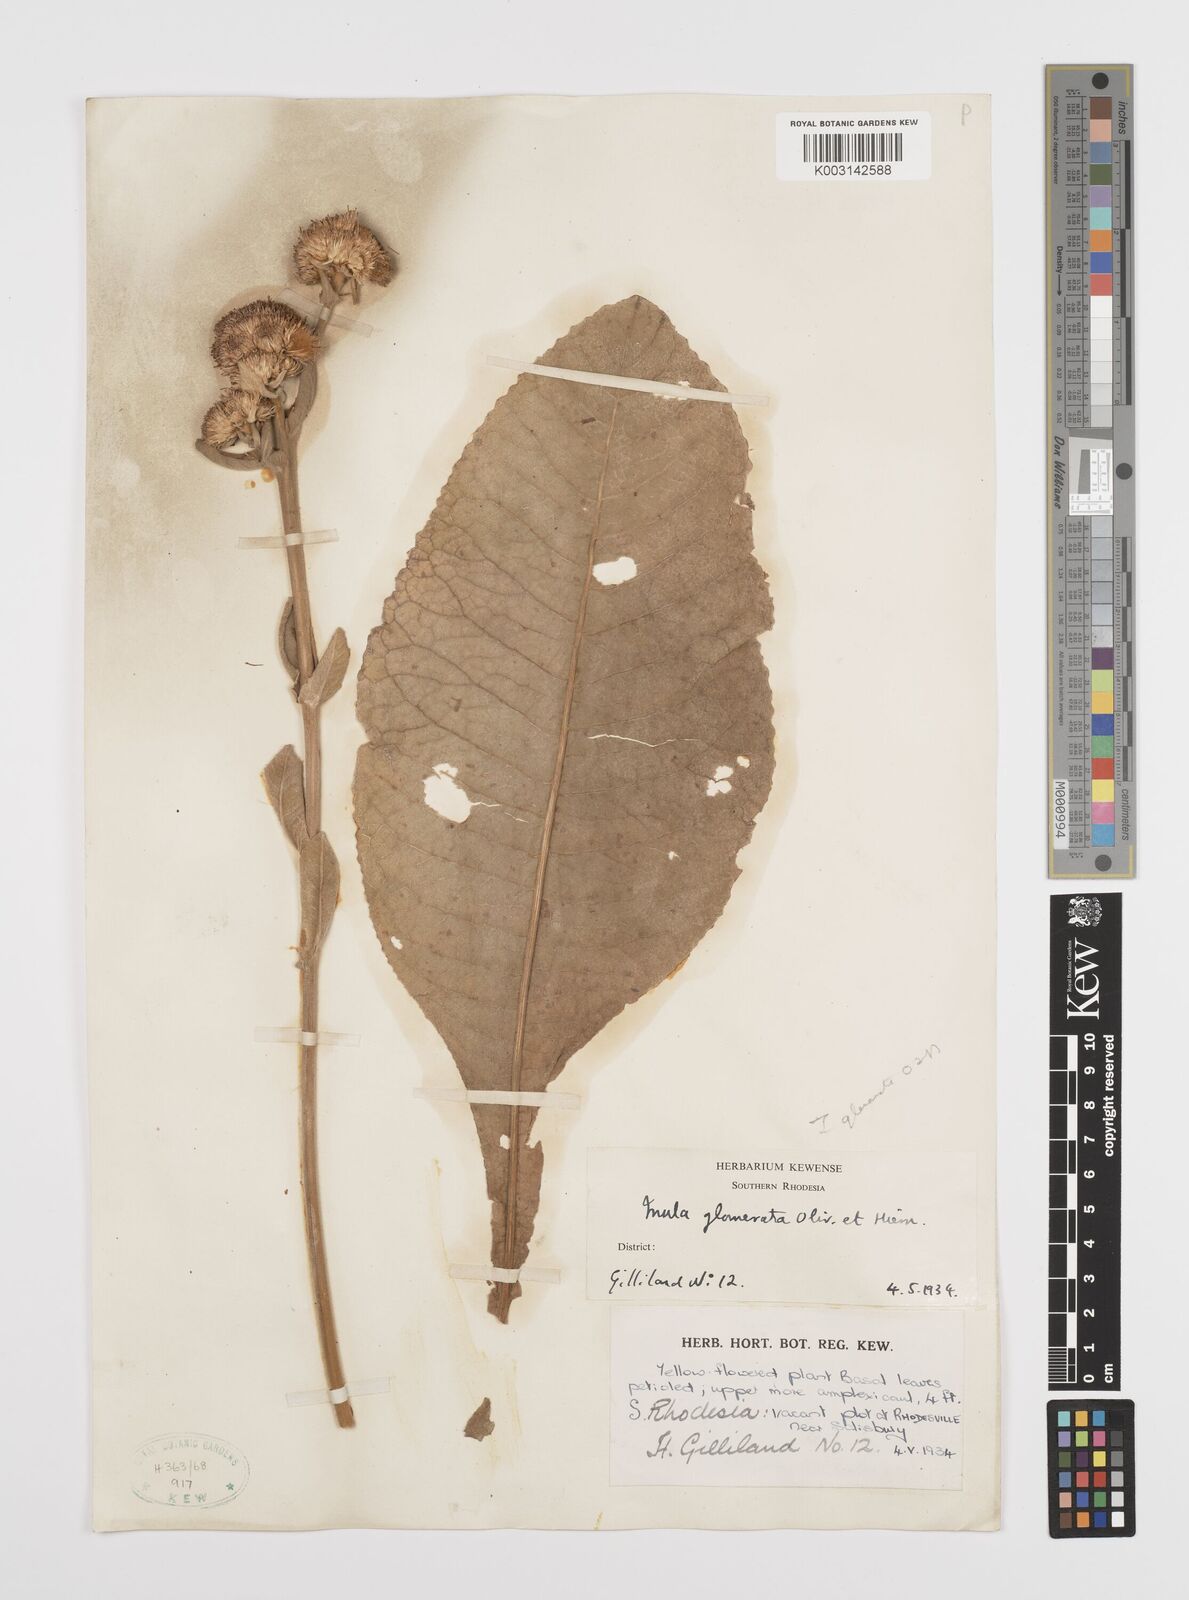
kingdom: Plantae
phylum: Tracheophyta
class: Magnoliopsida
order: Asterales
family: Asteraceae
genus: Inula
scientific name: Inula glomerata
